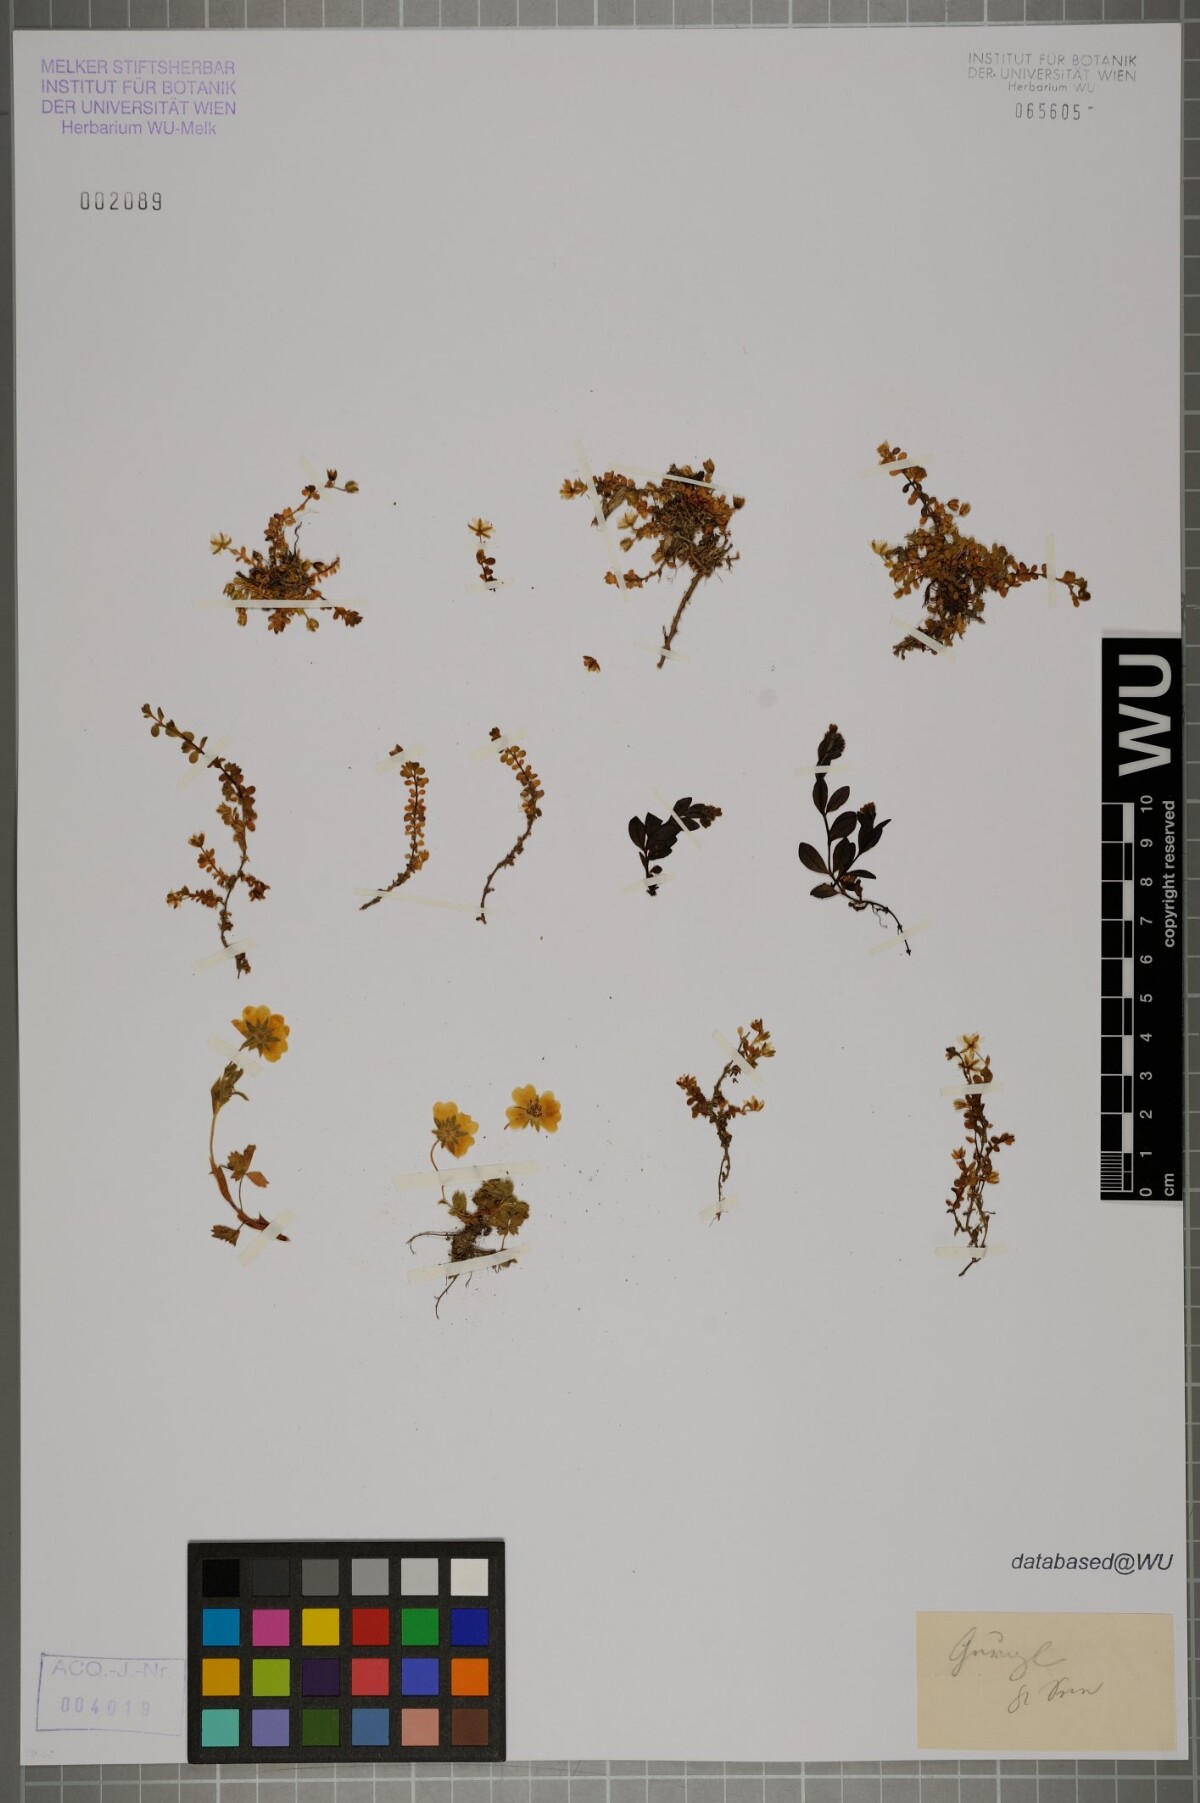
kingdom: Plantae
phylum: Tracheophyta
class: Magnoliopsida
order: Rosales
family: Rosaceae
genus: Potentilla
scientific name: Potentilla crantzii
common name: Alpine cinquefoil
